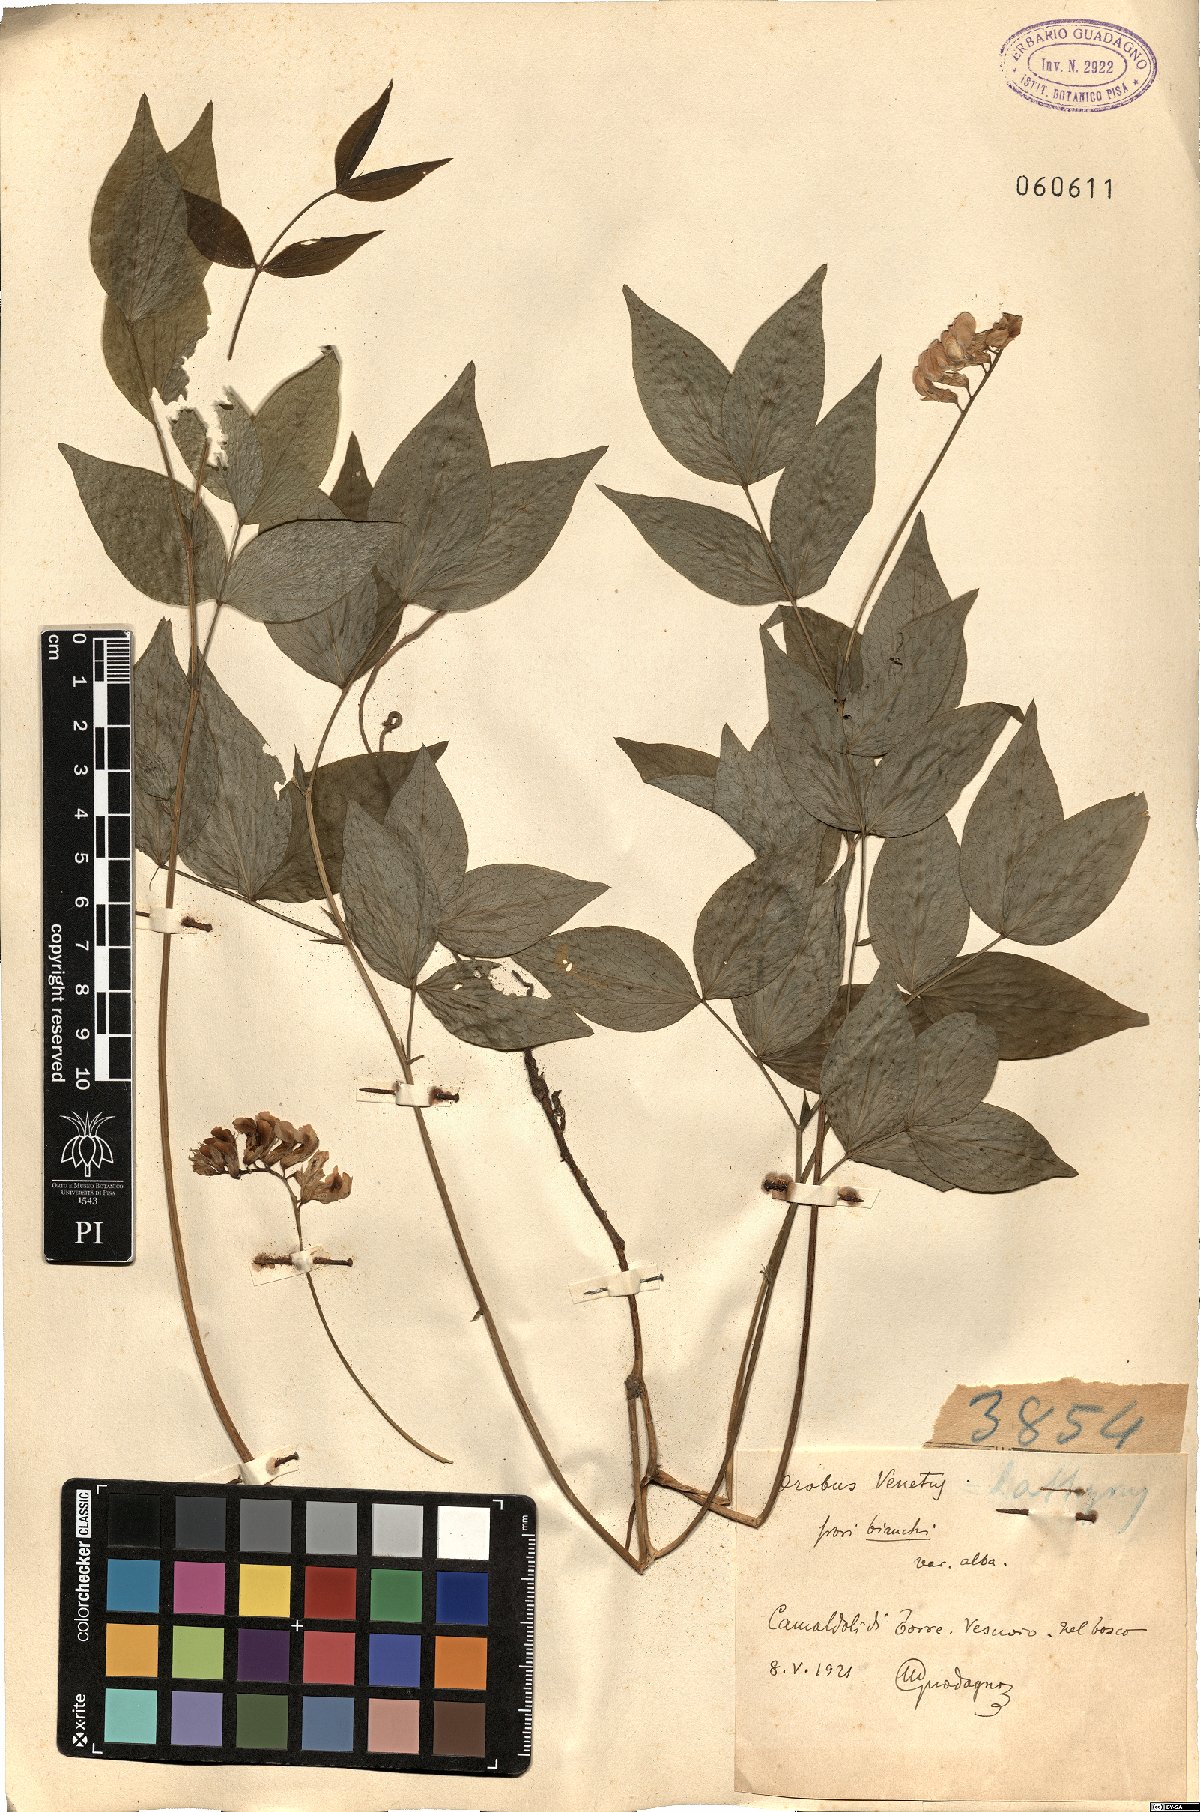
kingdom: Plantae
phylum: Tracheophyta
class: Magnoliopsida
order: Fabales
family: Fabaceae
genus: Lathyrus
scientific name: Lathyrus venetus
